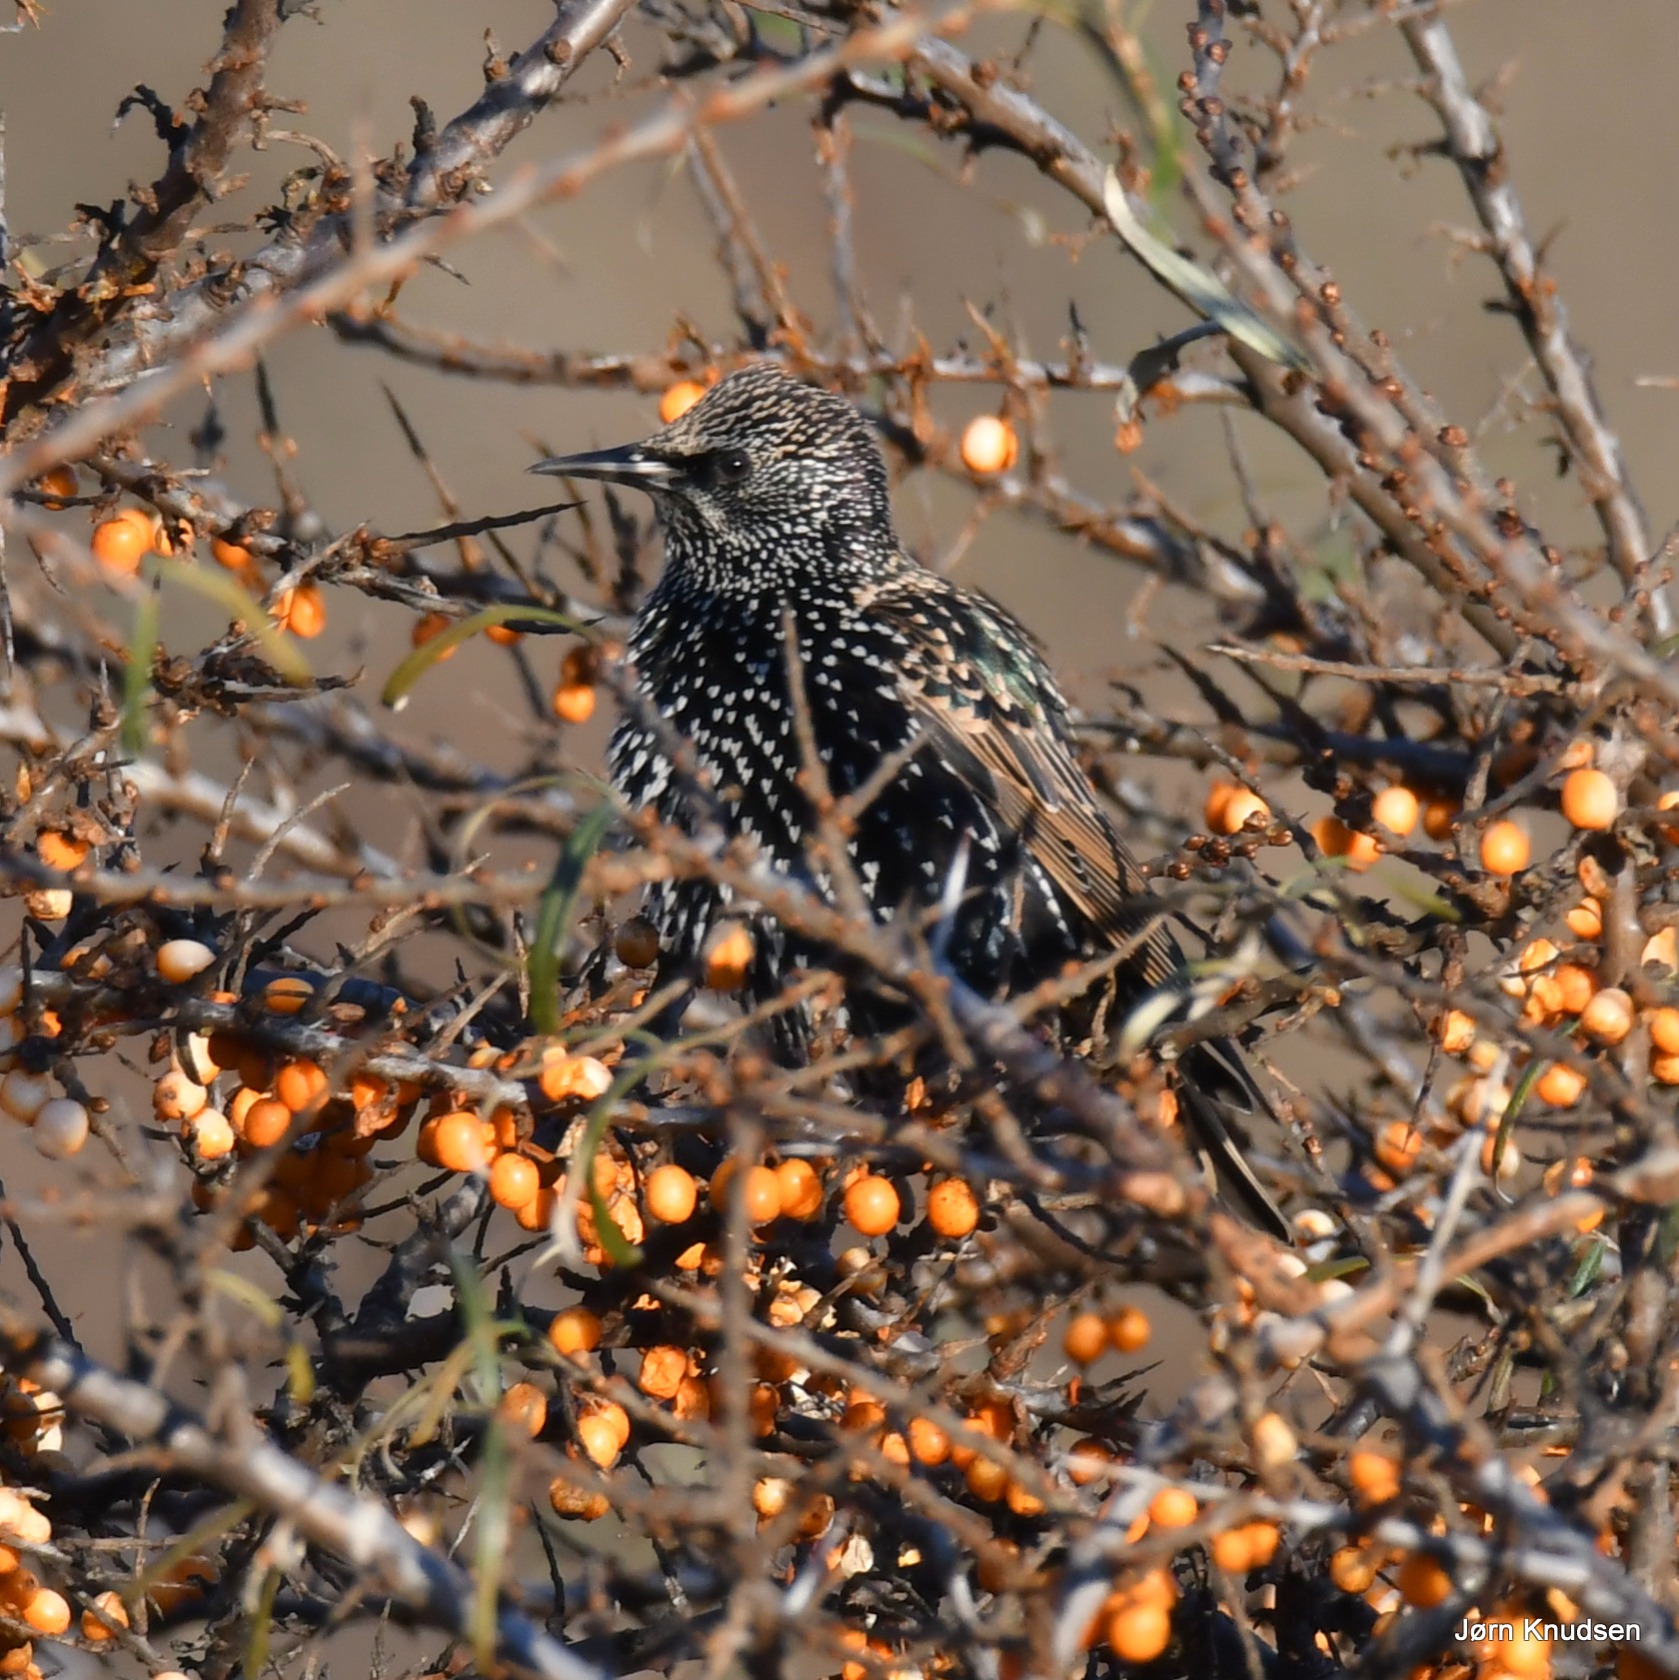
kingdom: Animalia
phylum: Chordata
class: Aves
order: Passeriformes
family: Sturnidae
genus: Sturnus
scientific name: Sturnus vulgaris
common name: Stær
